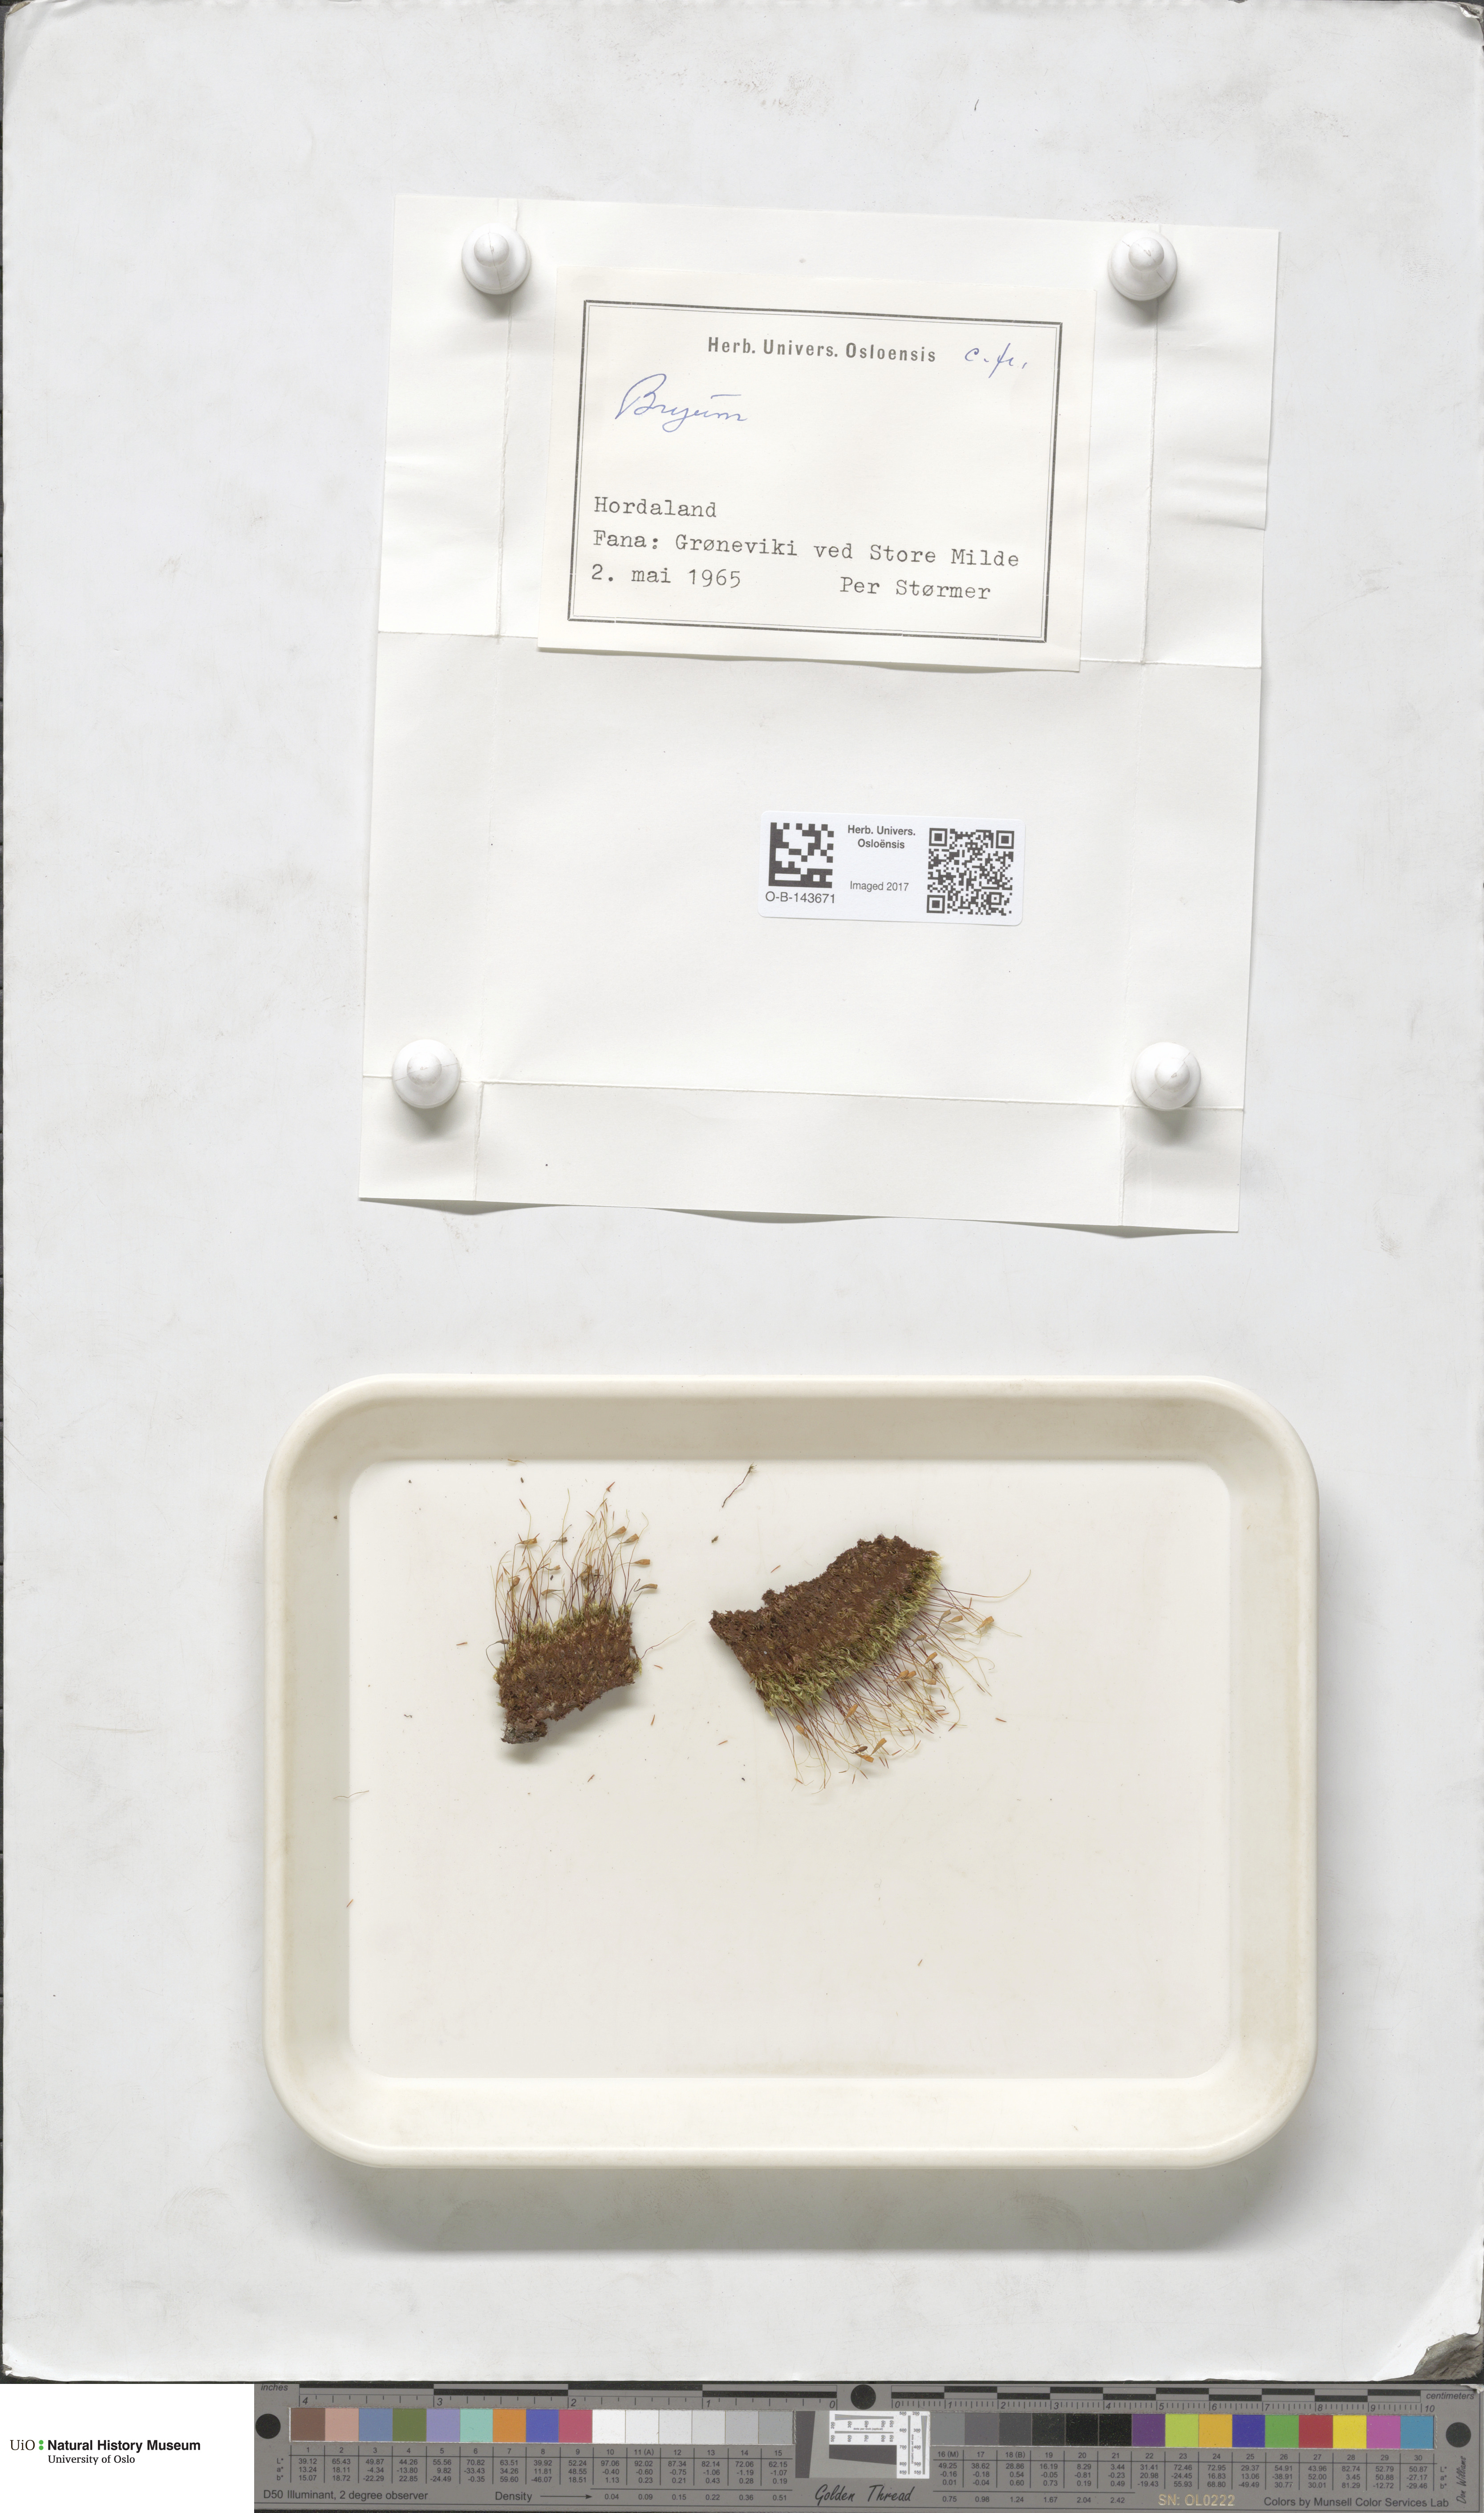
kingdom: Plantae
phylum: Bryophyta
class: Bryopsida
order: Bryales
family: Bryaceae
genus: Bryum
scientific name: Bryum
